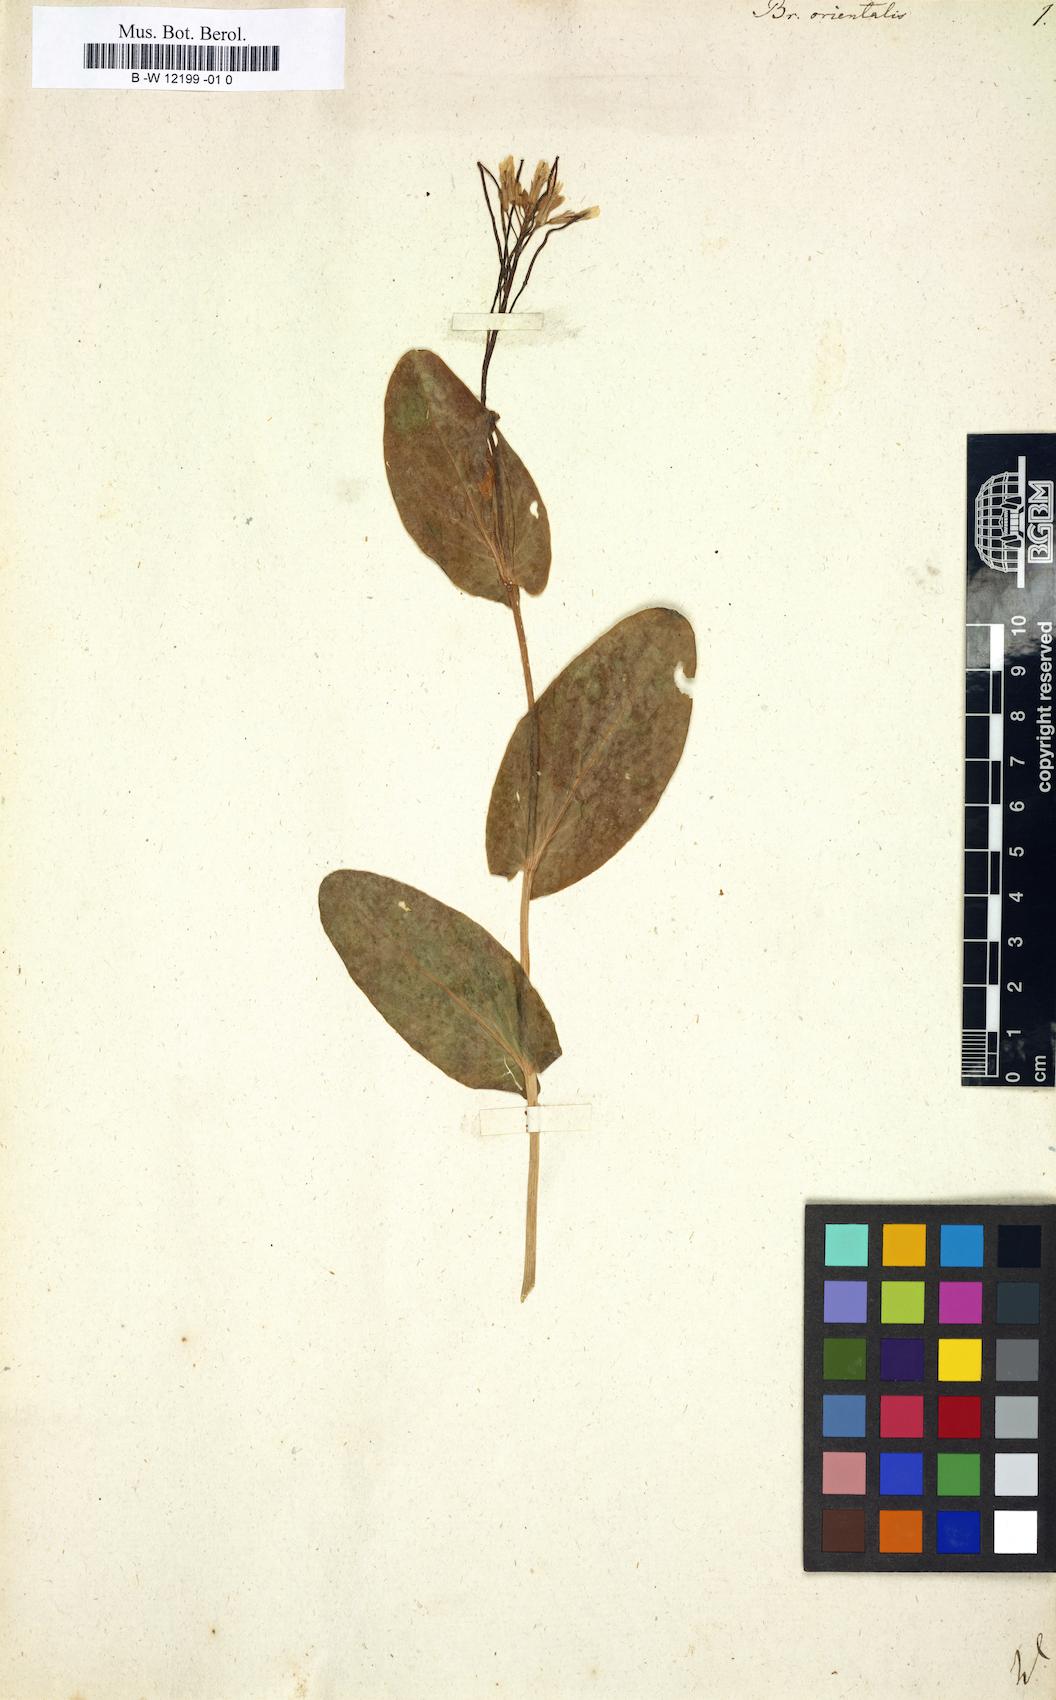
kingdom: Plantae
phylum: Tracheophyta
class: Magnoliopsida
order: Brassicales
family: Brassicaceae
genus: Conringia
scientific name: Conringia orientalis
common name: Hare's ear mustard
